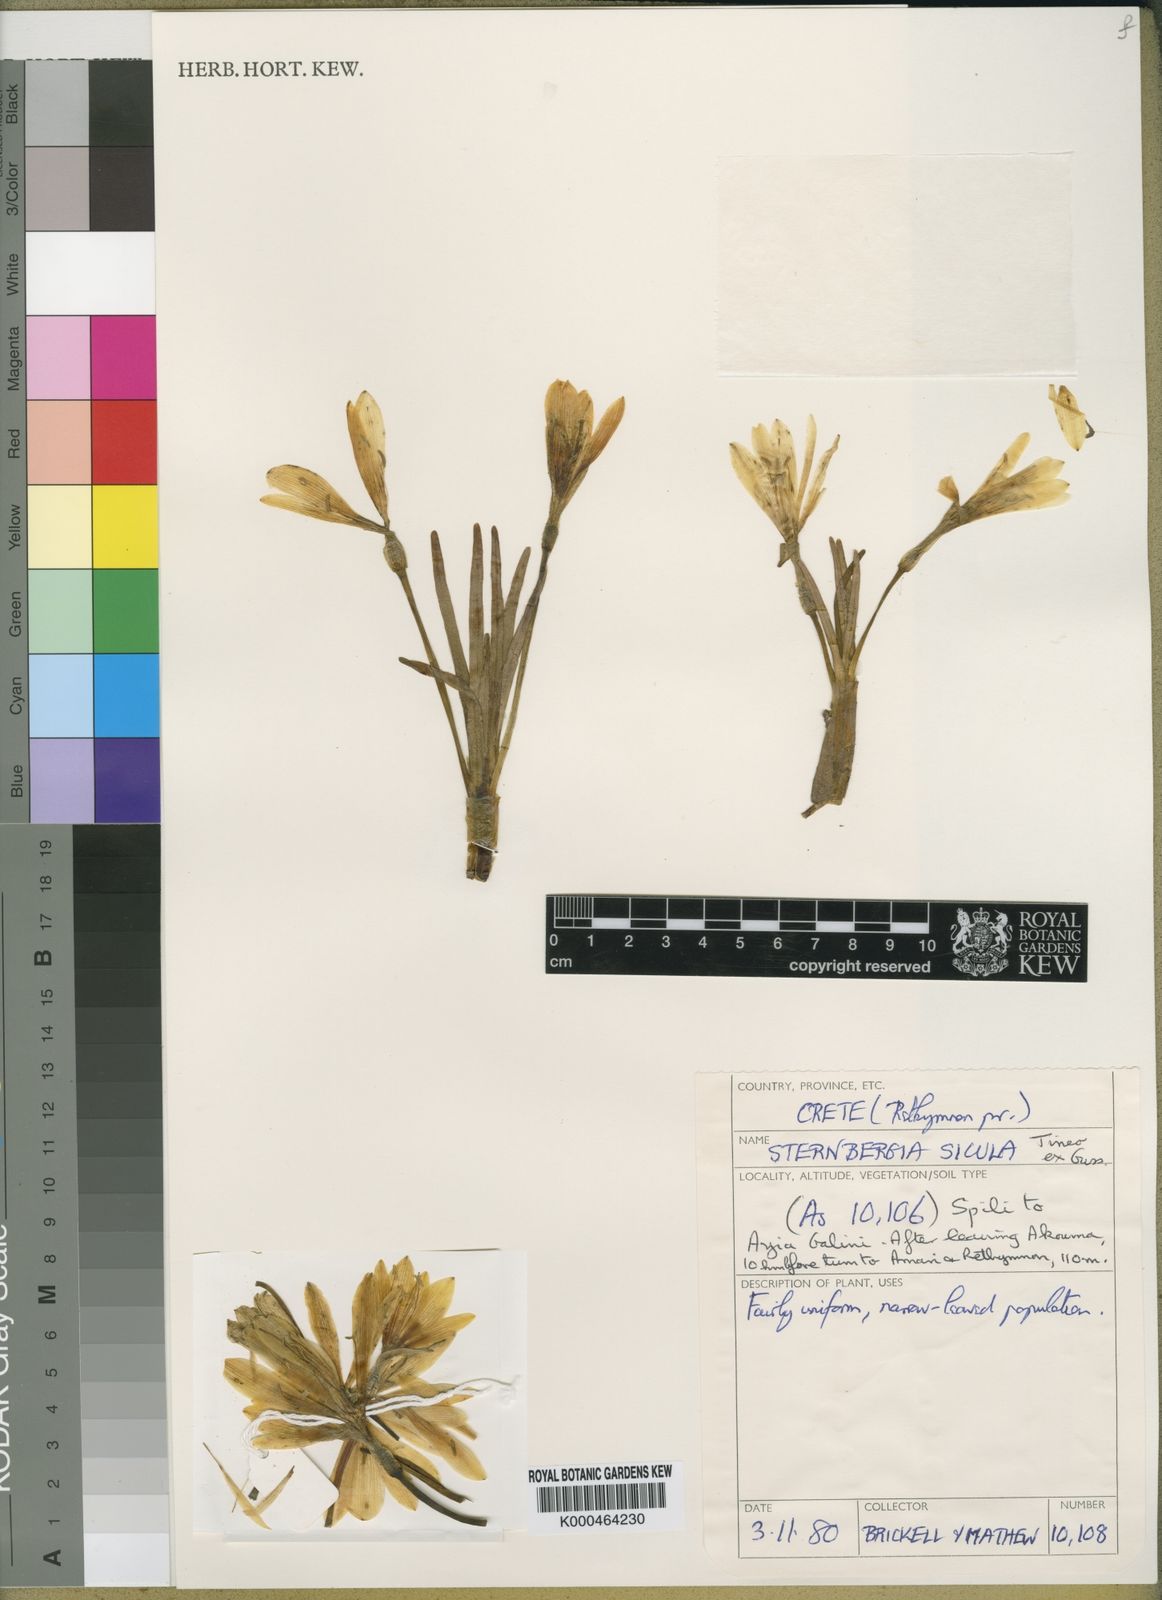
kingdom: Plantae
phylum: Tracheophyta
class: Liliopsida
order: Asparagales
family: Amaryllidaceae
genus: Sternbergia
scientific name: Sternbergia
